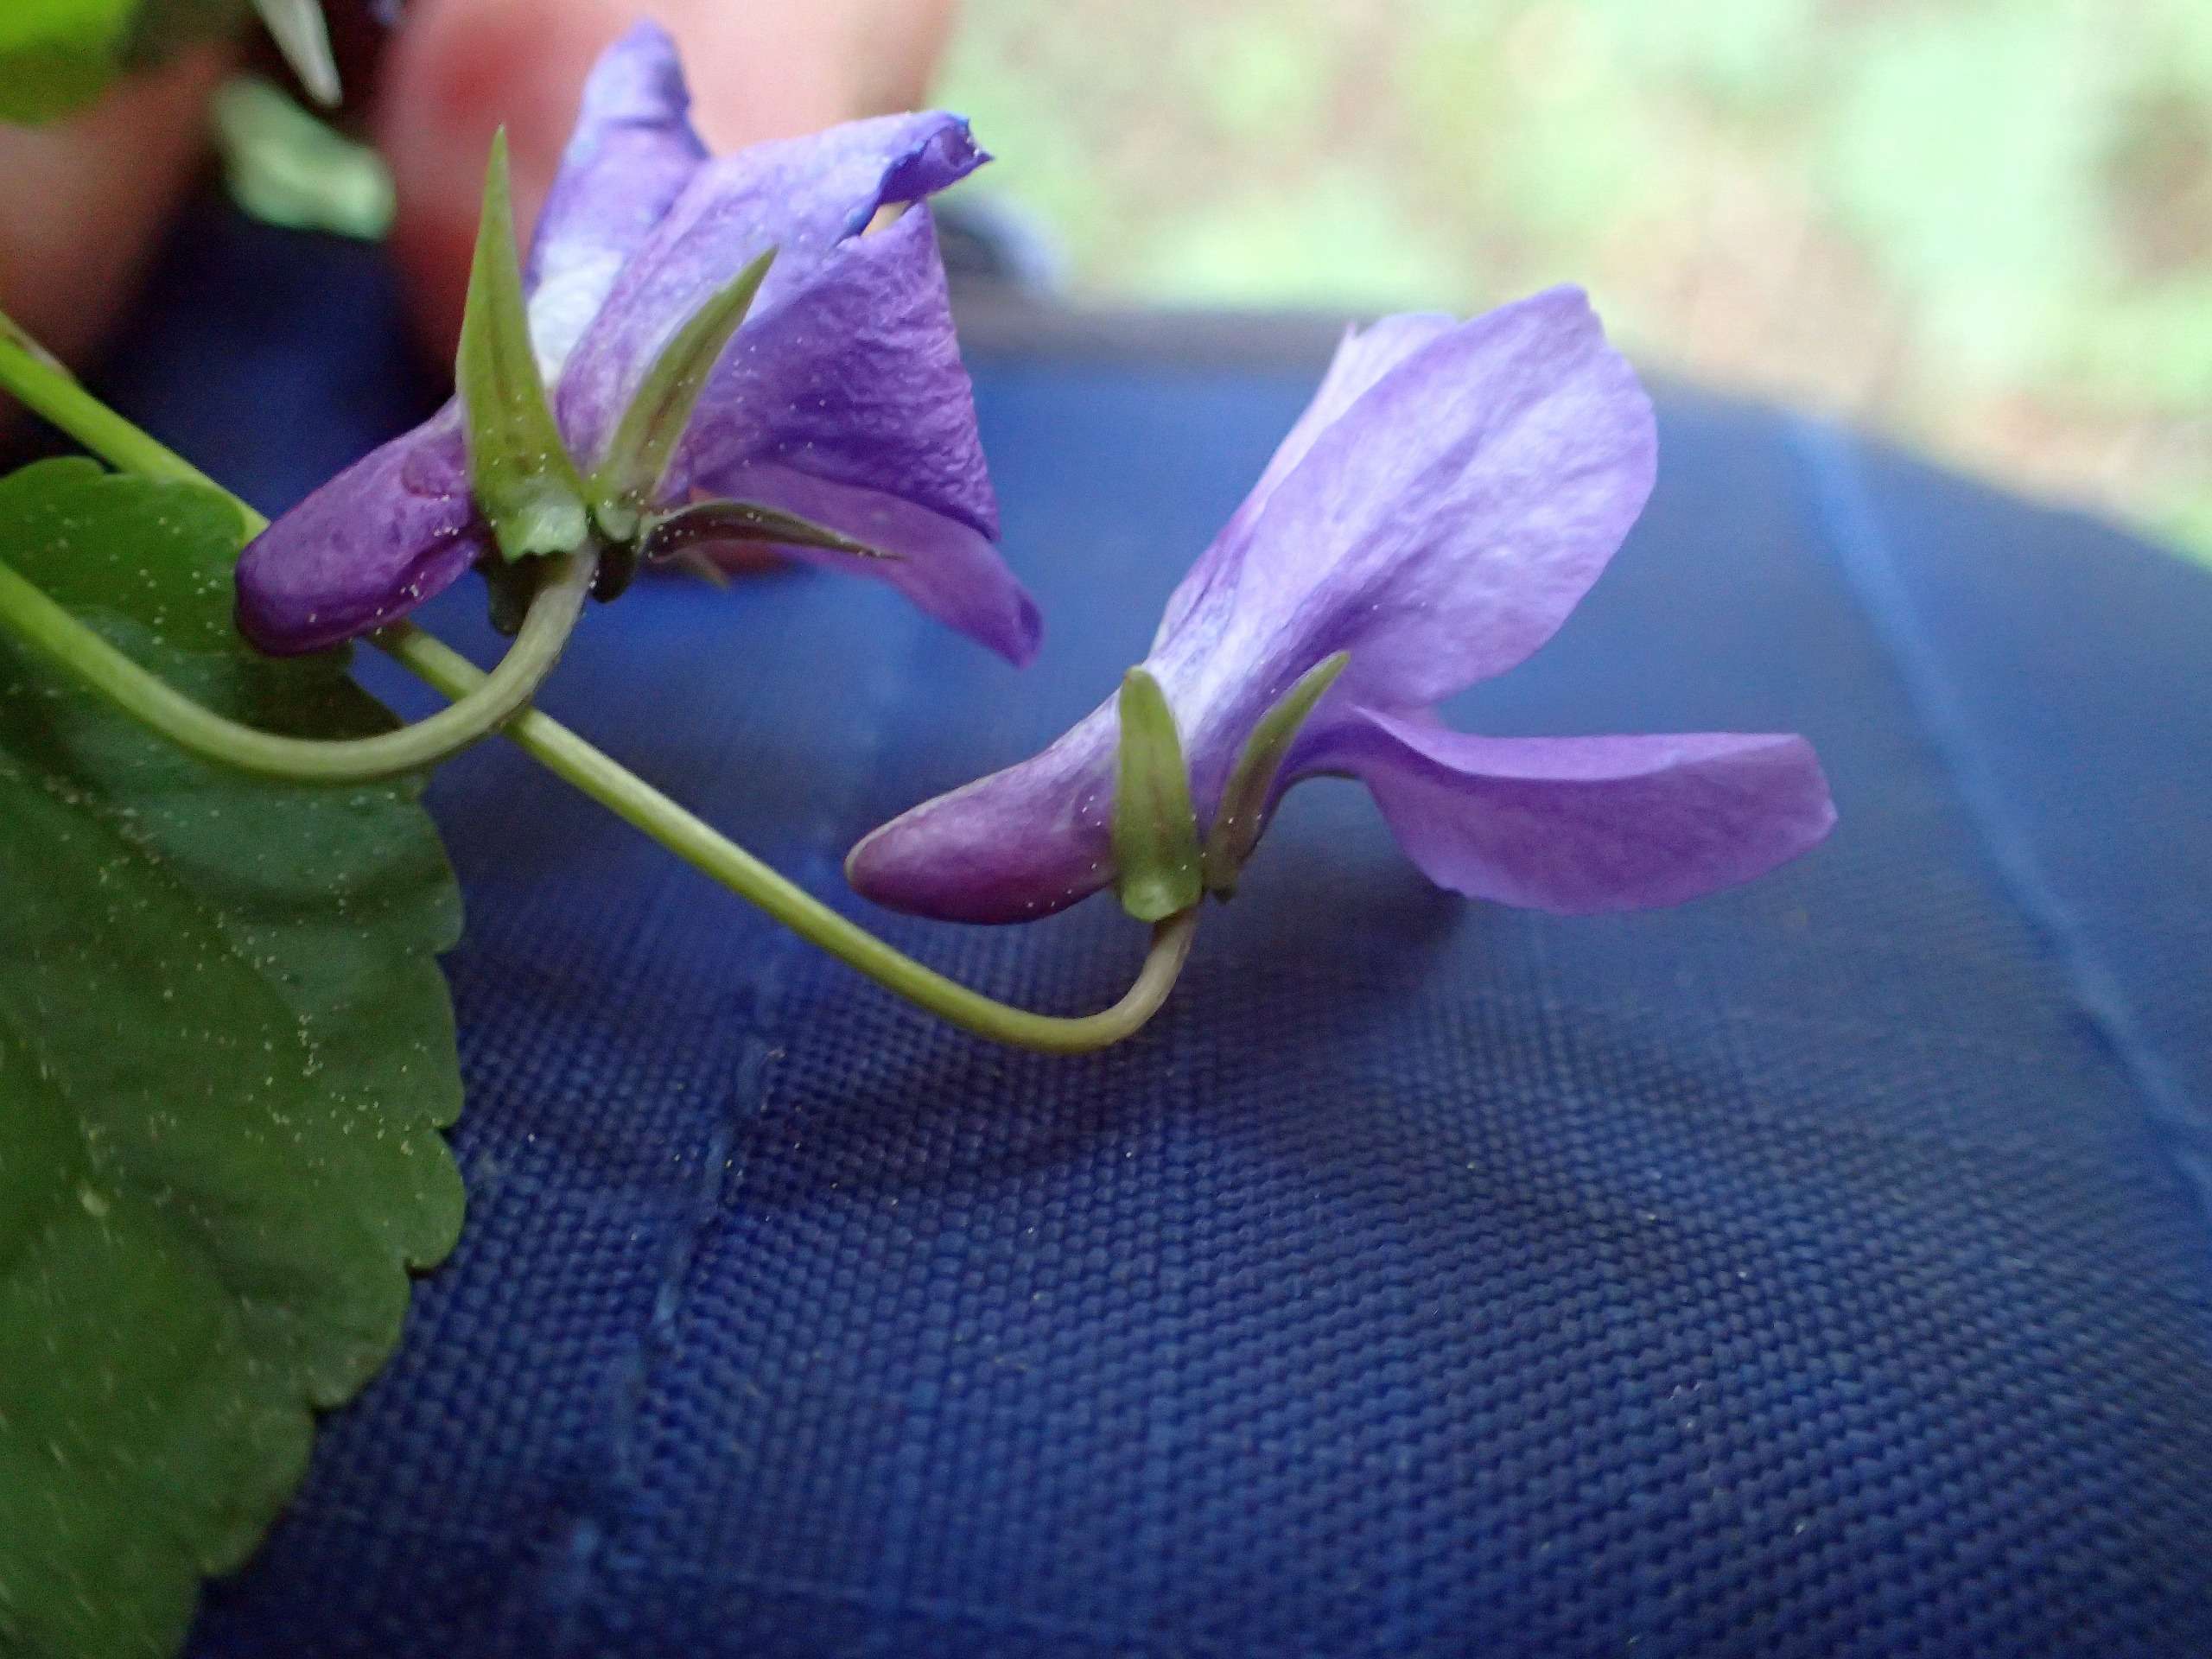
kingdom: Plantae
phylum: Tracheophyta
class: Magnoliopsida
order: Malpighiales
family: Violaceae
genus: Viola
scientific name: Viola reichenbachiana
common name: Skov-viol
